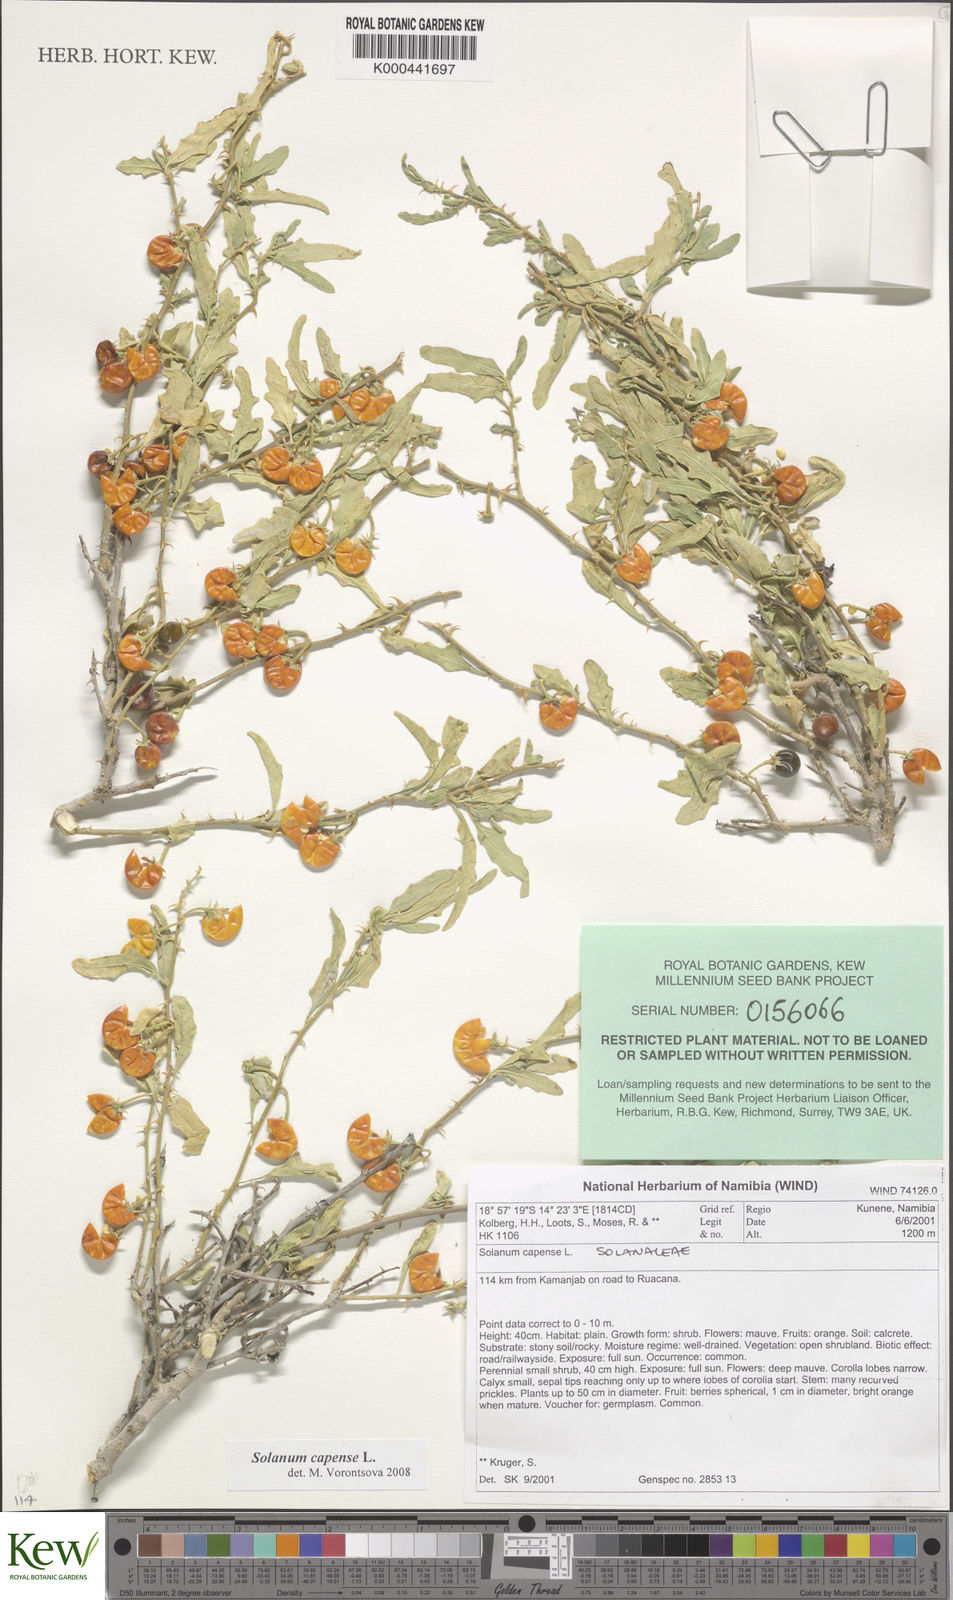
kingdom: Plantae
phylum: Tracheophyta
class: Magnoliopsida
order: Solanales
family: Solanaceae
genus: Solanum
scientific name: Solanum capense
